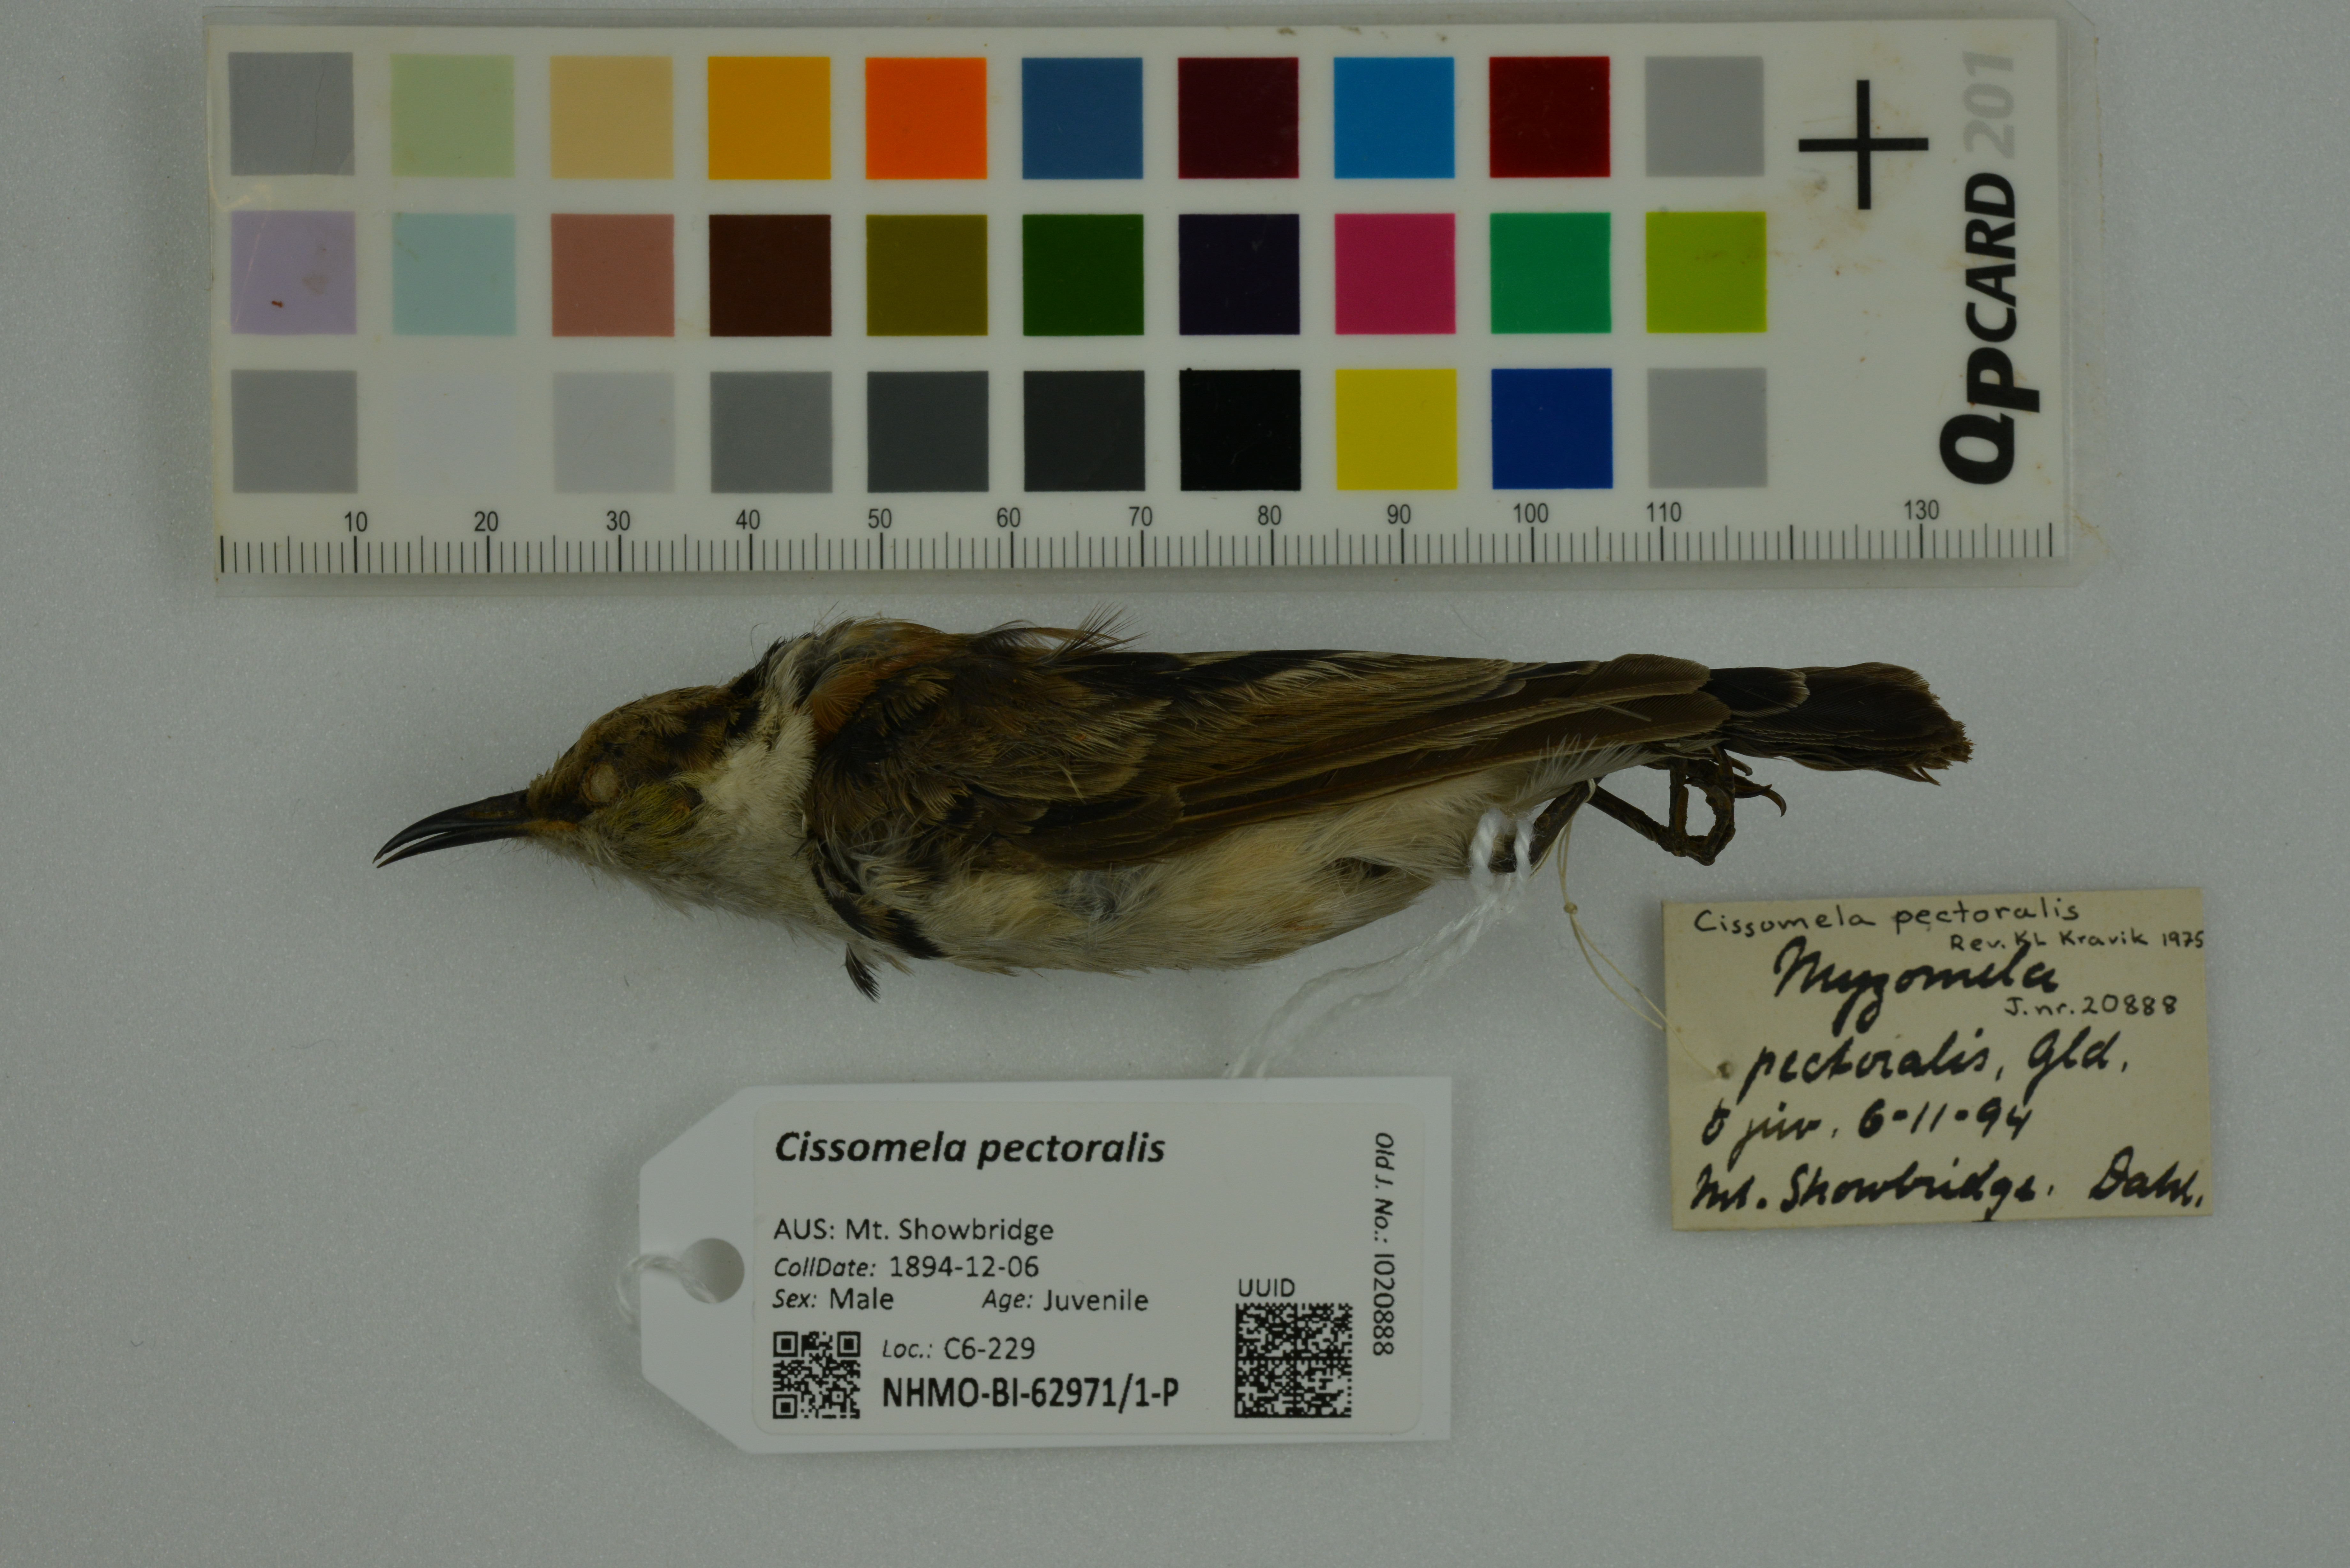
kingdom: Animalia
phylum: Chordata
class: Aves
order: Passeriformes
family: Meliphagidae
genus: Cissomela
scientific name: Cissomela pectoralis
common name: Banded honeyeater
